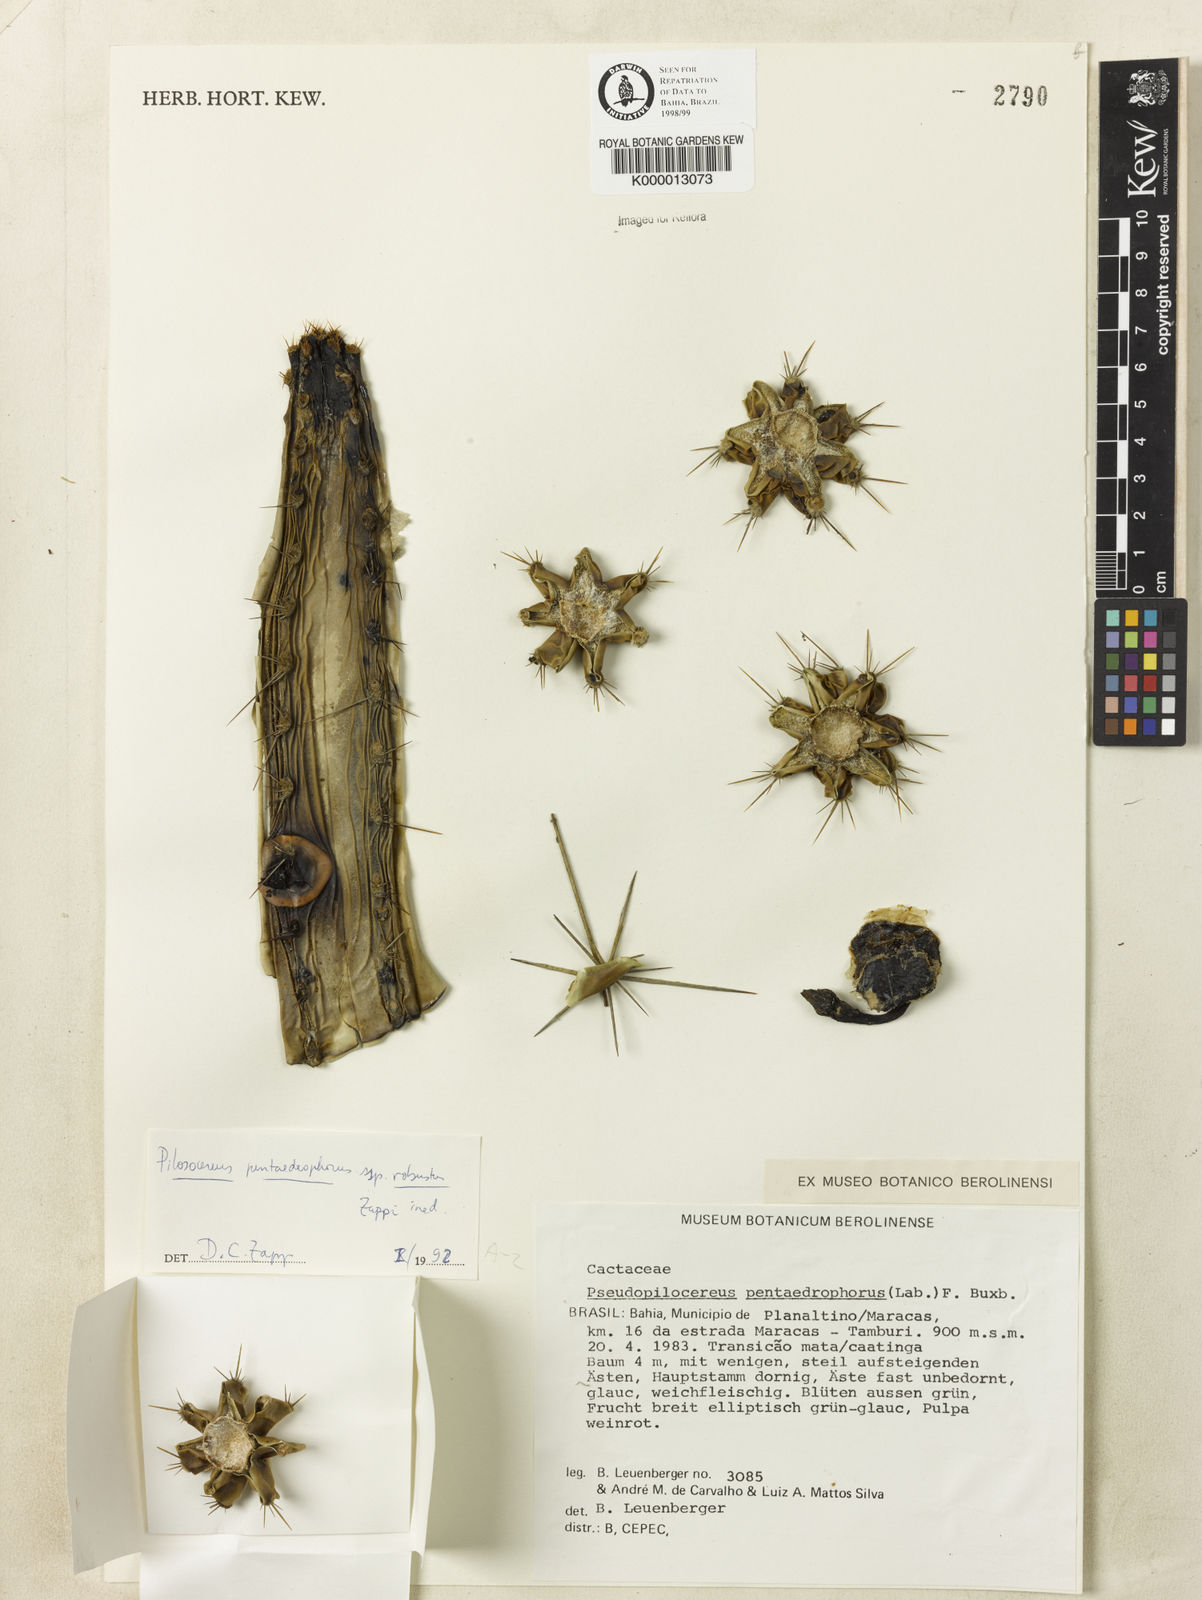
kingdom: Plantae
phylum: Tracheophyta
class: Magnoliopsida
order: Caryophyllales
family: Cactaceae
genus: Pilosocereus
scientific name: Pilosocereus pentaedrophorus
